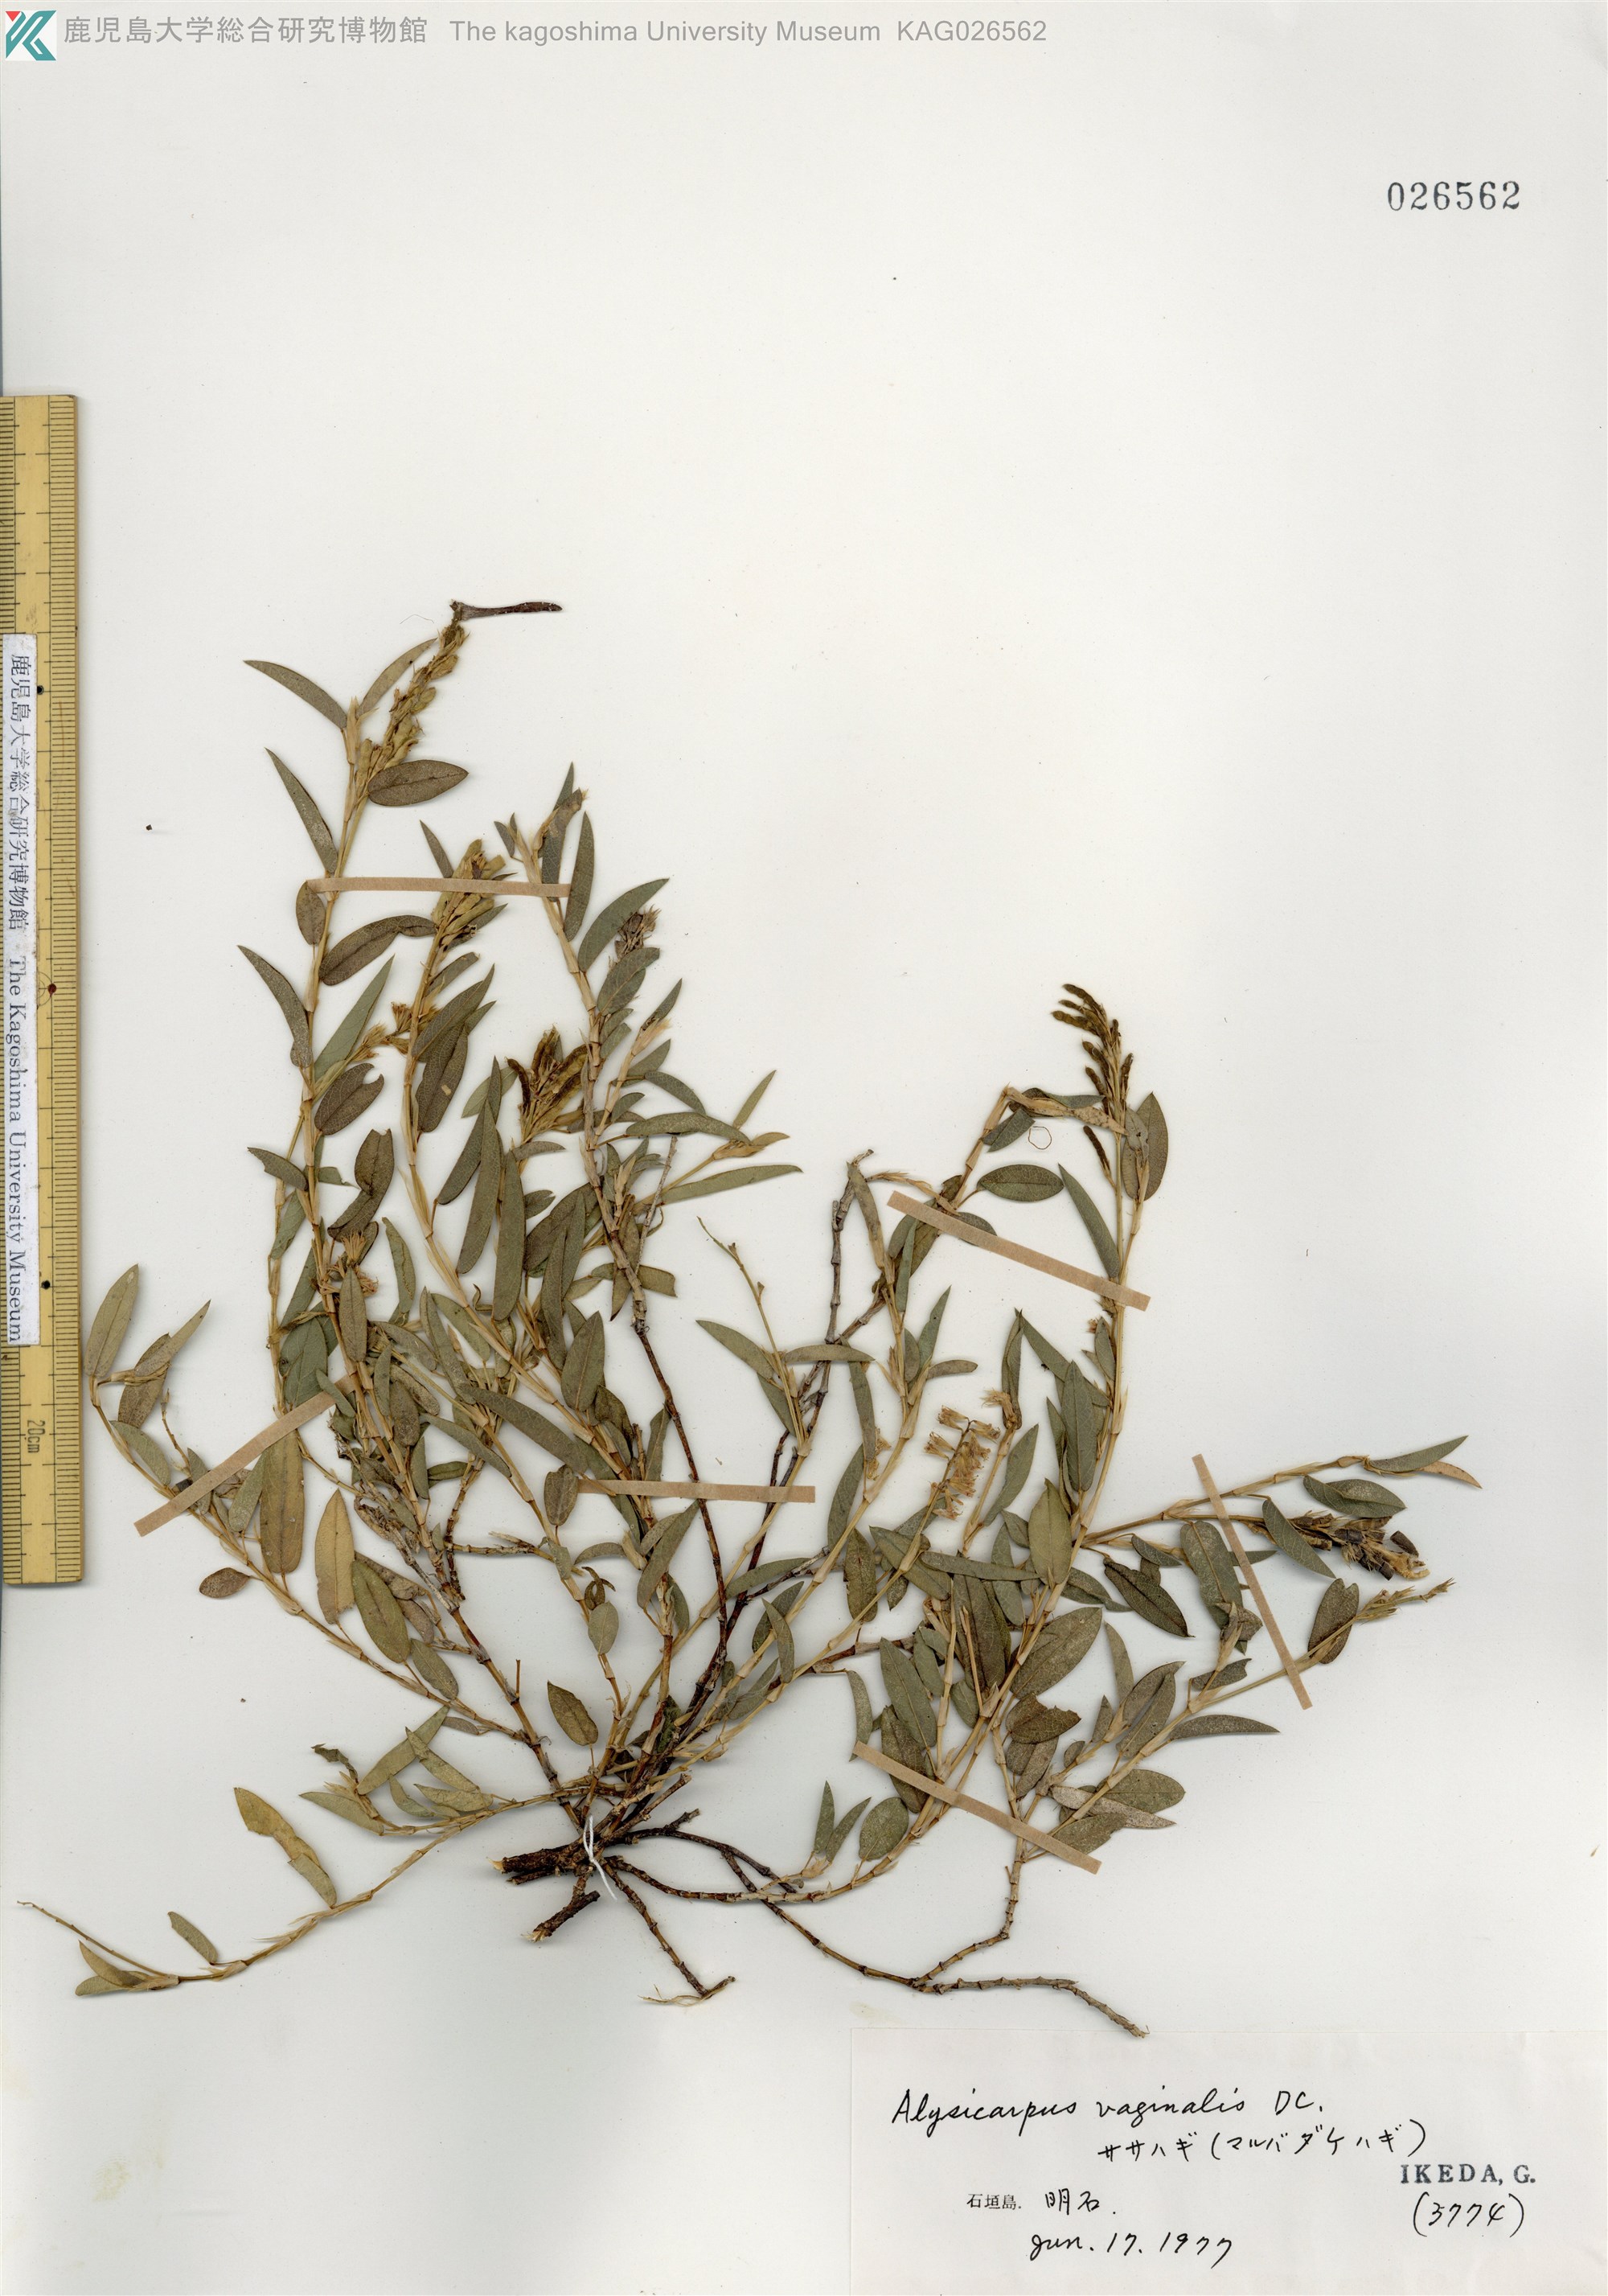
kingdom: Plantae
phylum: Tracheophyta
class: Magnoliopsida
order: Fabales
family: Fabaceae
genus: Alysicarpus
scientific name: Alysicarpus vaginalis
